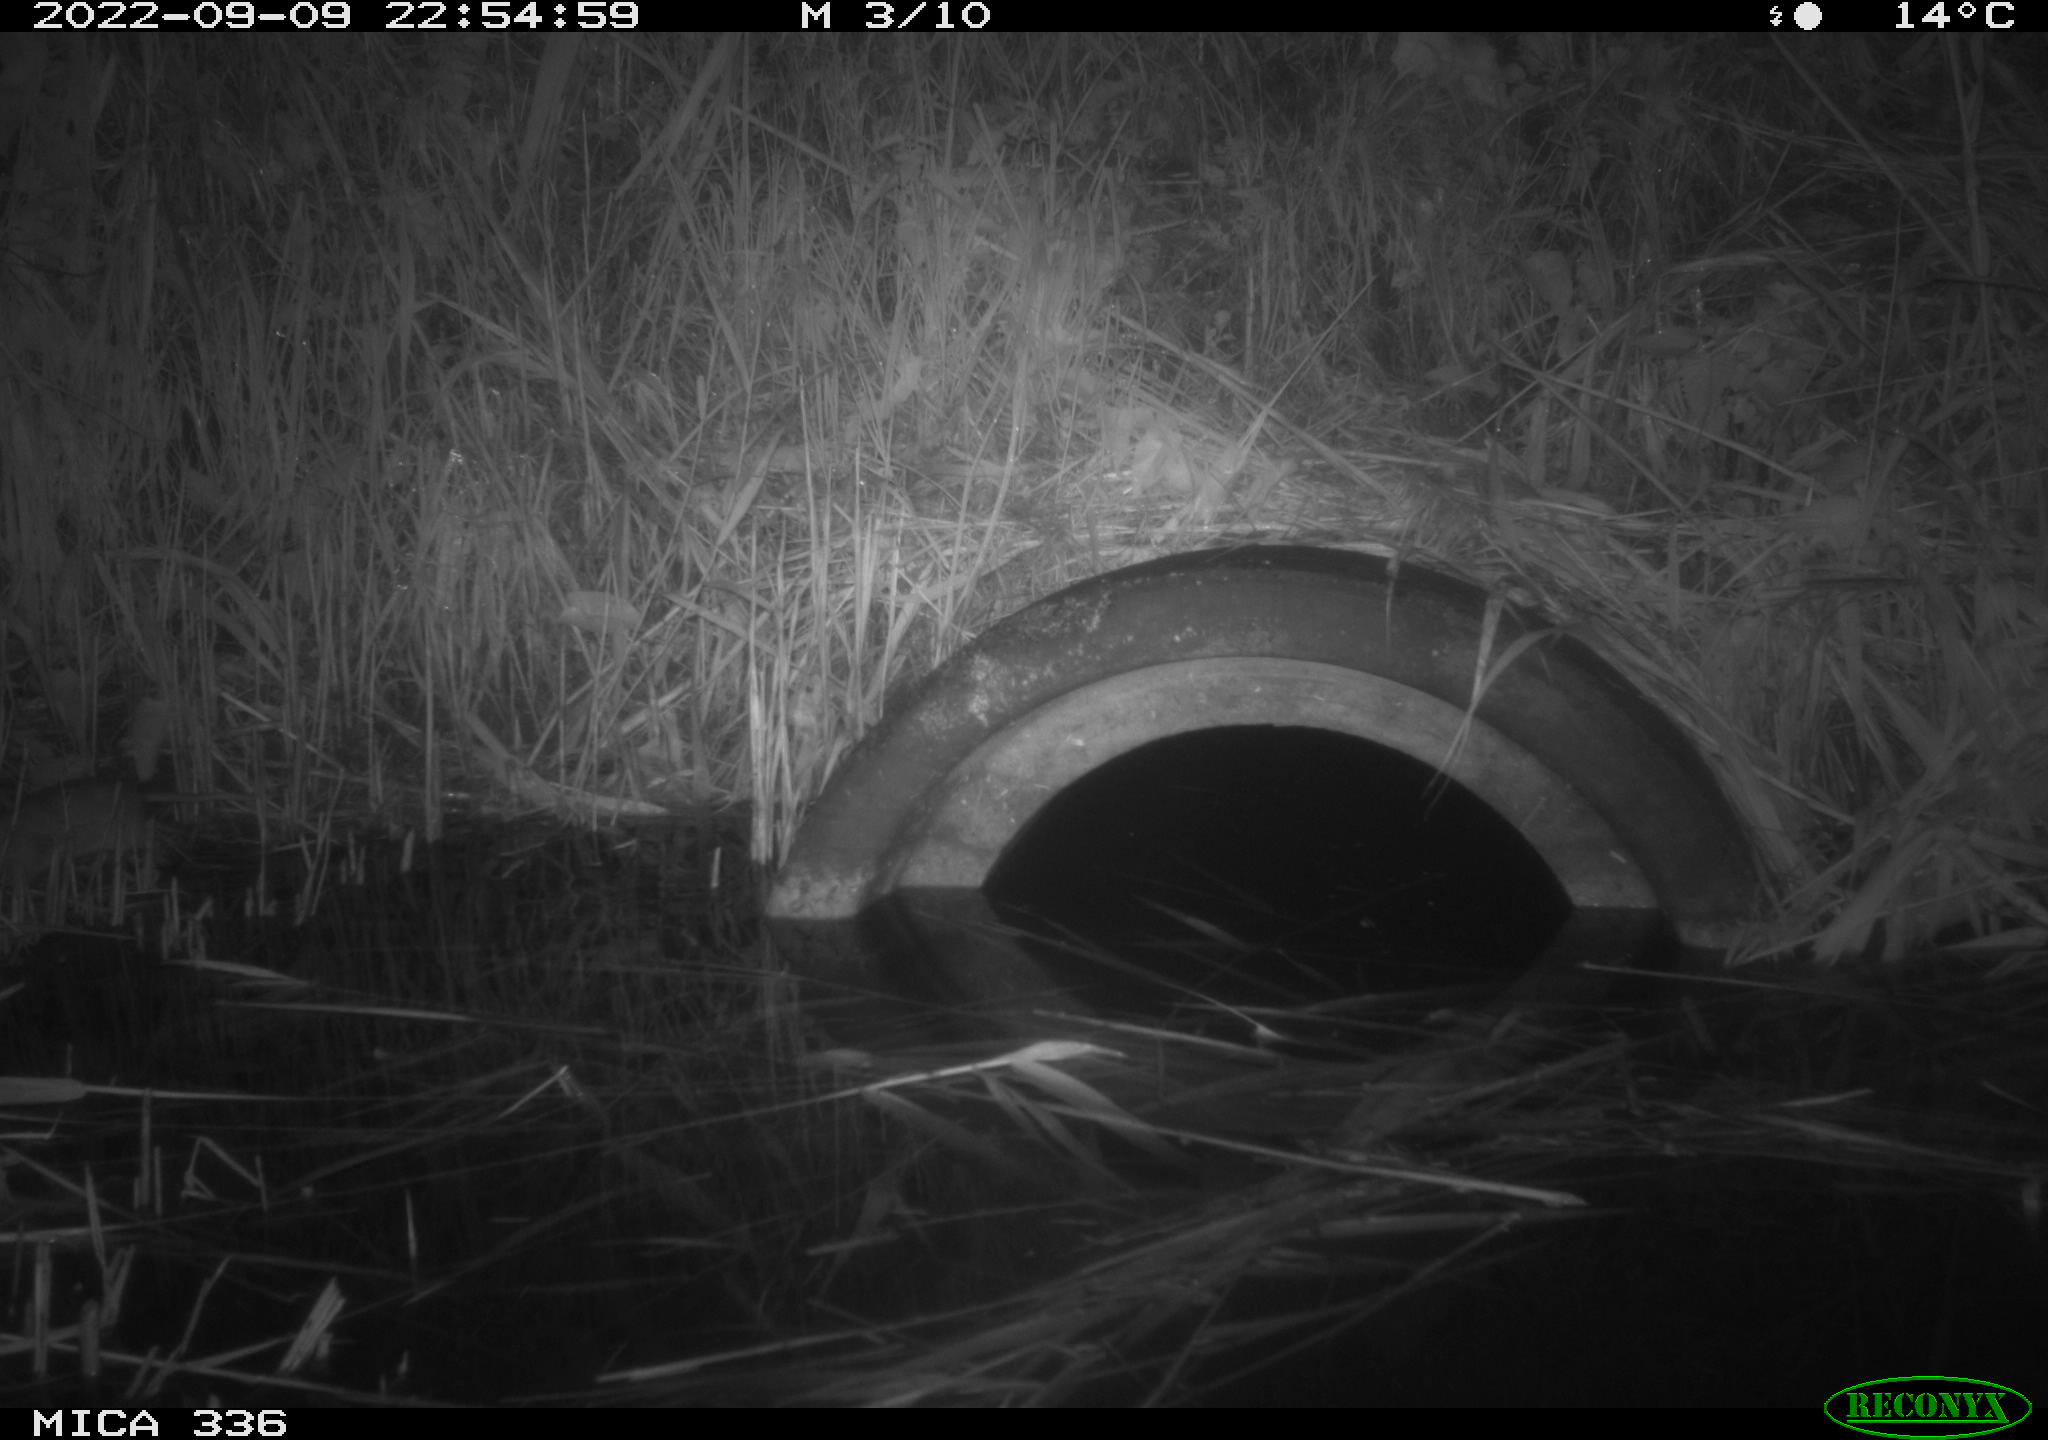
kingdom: Animalia
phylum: Chordata
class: Mammalia
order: Rodentia
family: Muridae
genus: Rattus
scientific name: Rattus norvegicus
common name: Brown rat
